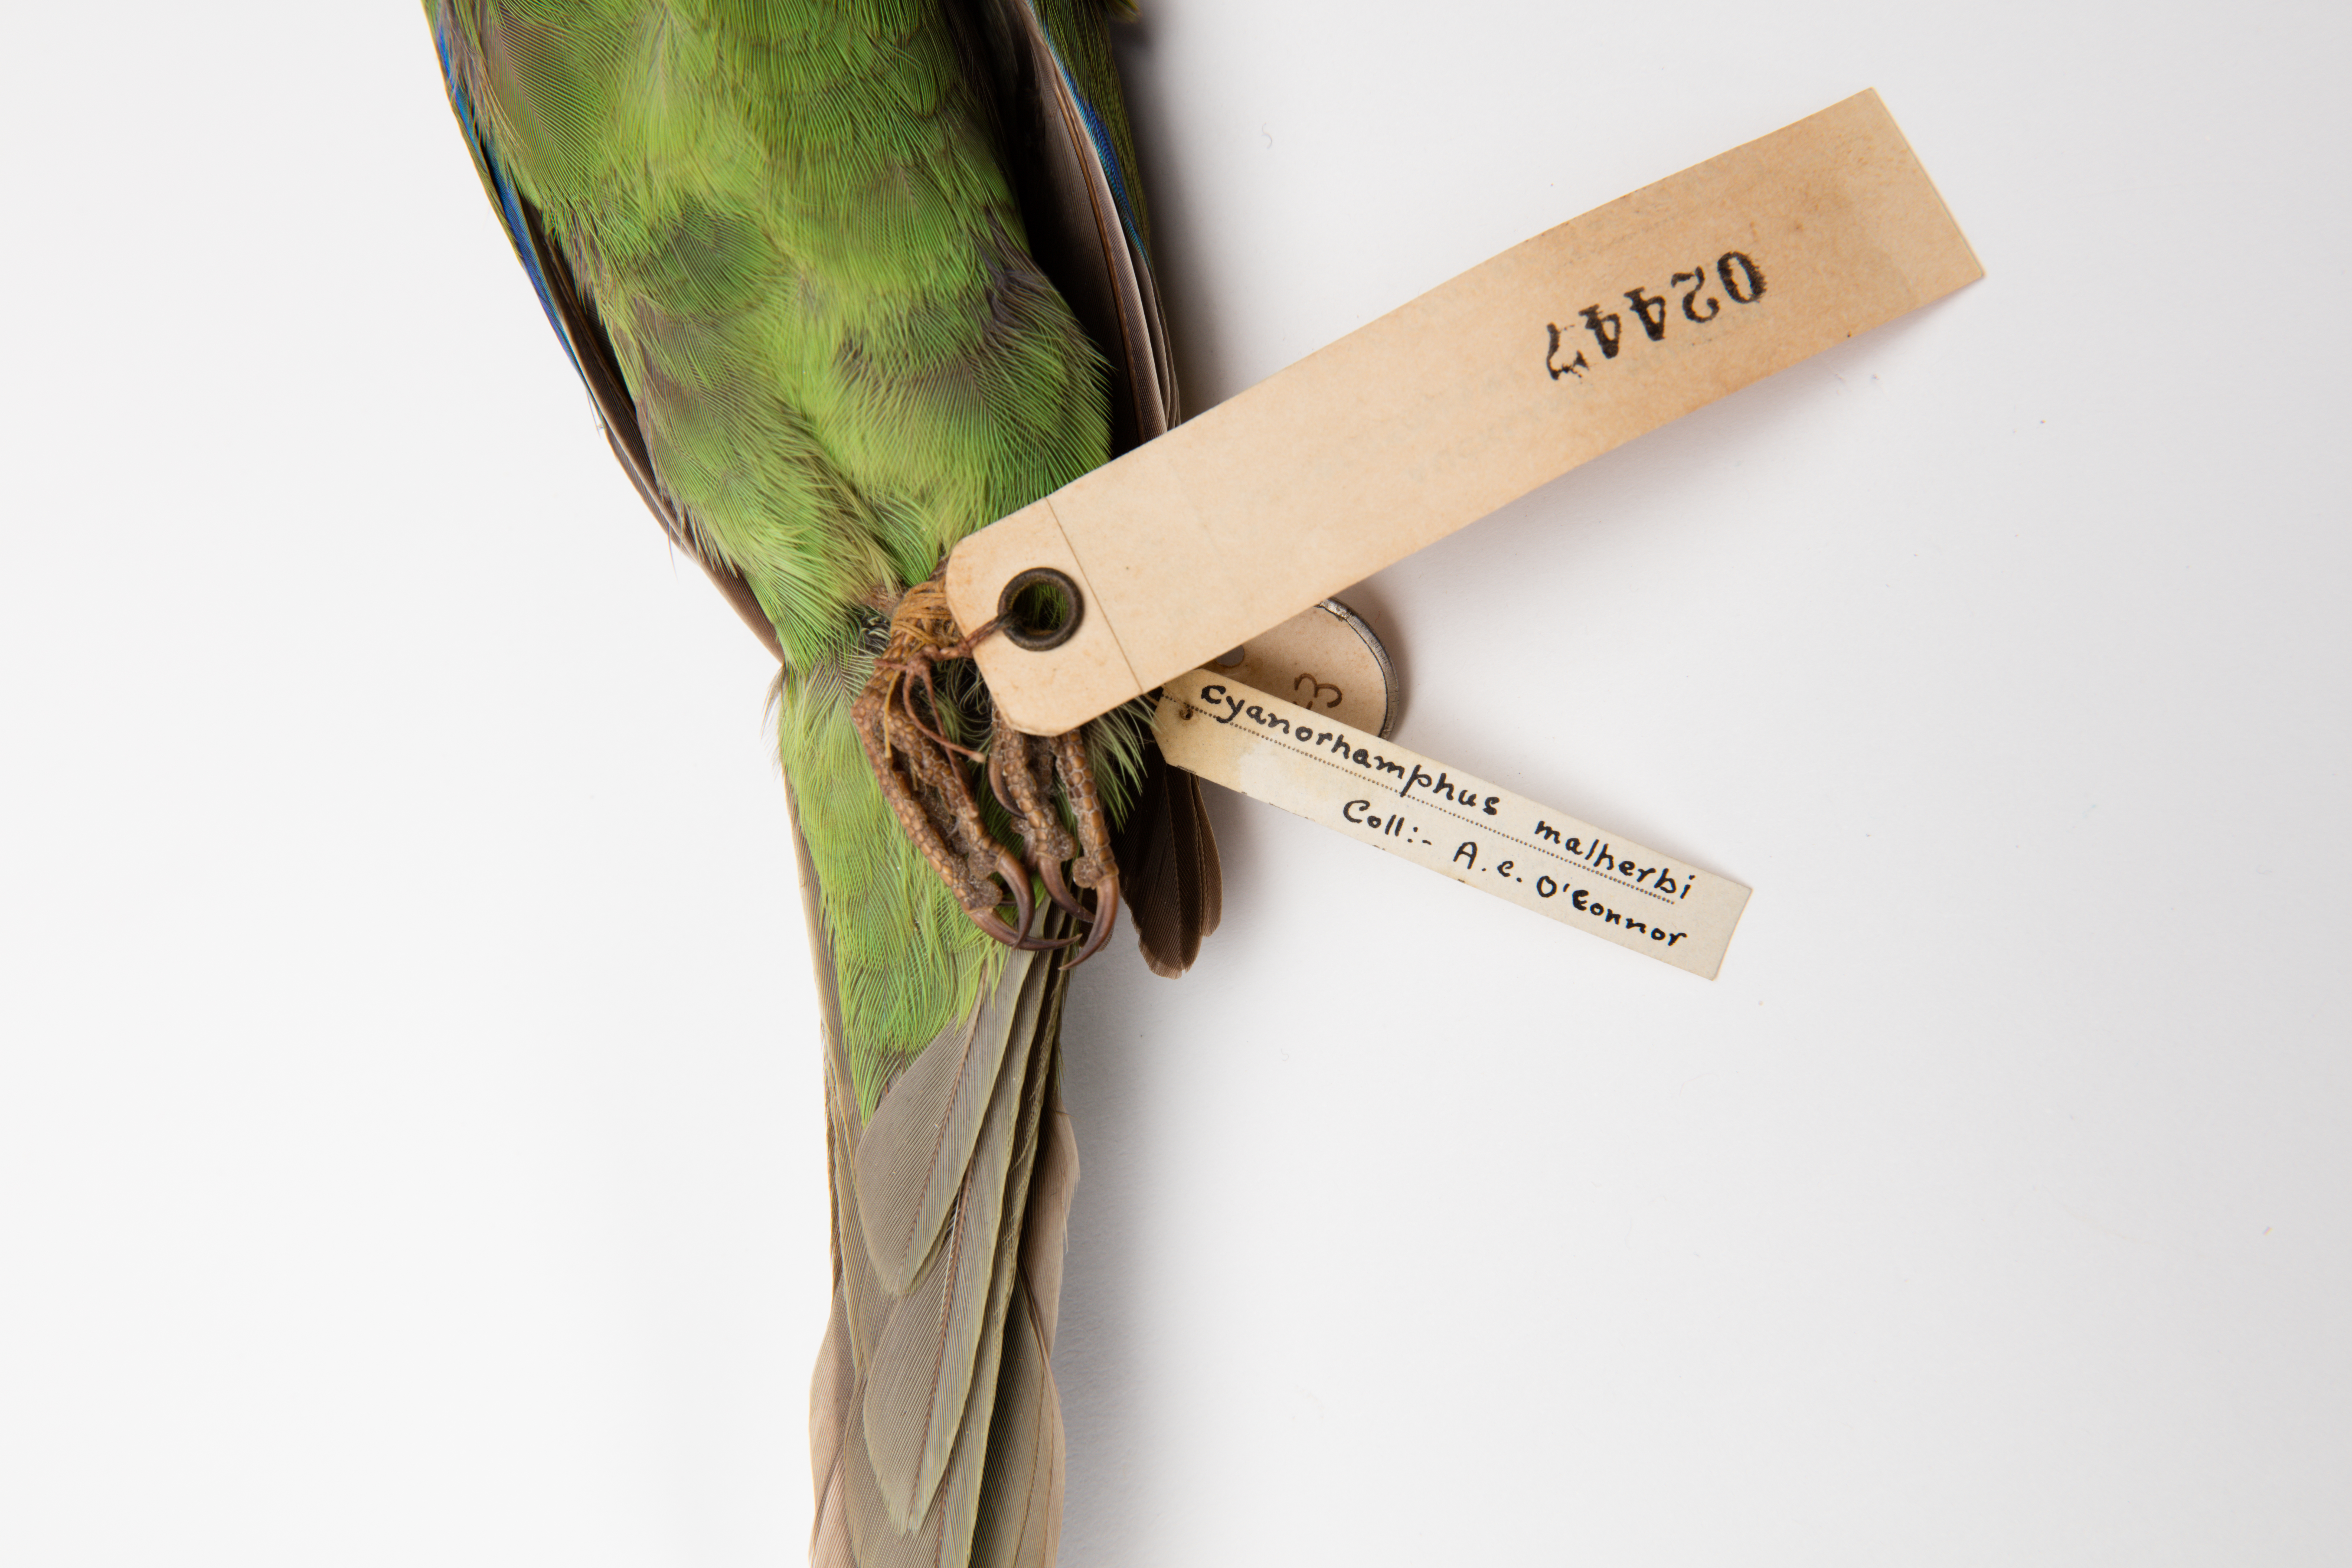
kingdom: Animalia
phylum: Chordata
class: Aves
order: Psittaciformes
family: Psittacidae
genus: Cyanoramphus
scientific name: Cyanoramphus malherbi
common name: Malherbe's parakeet
